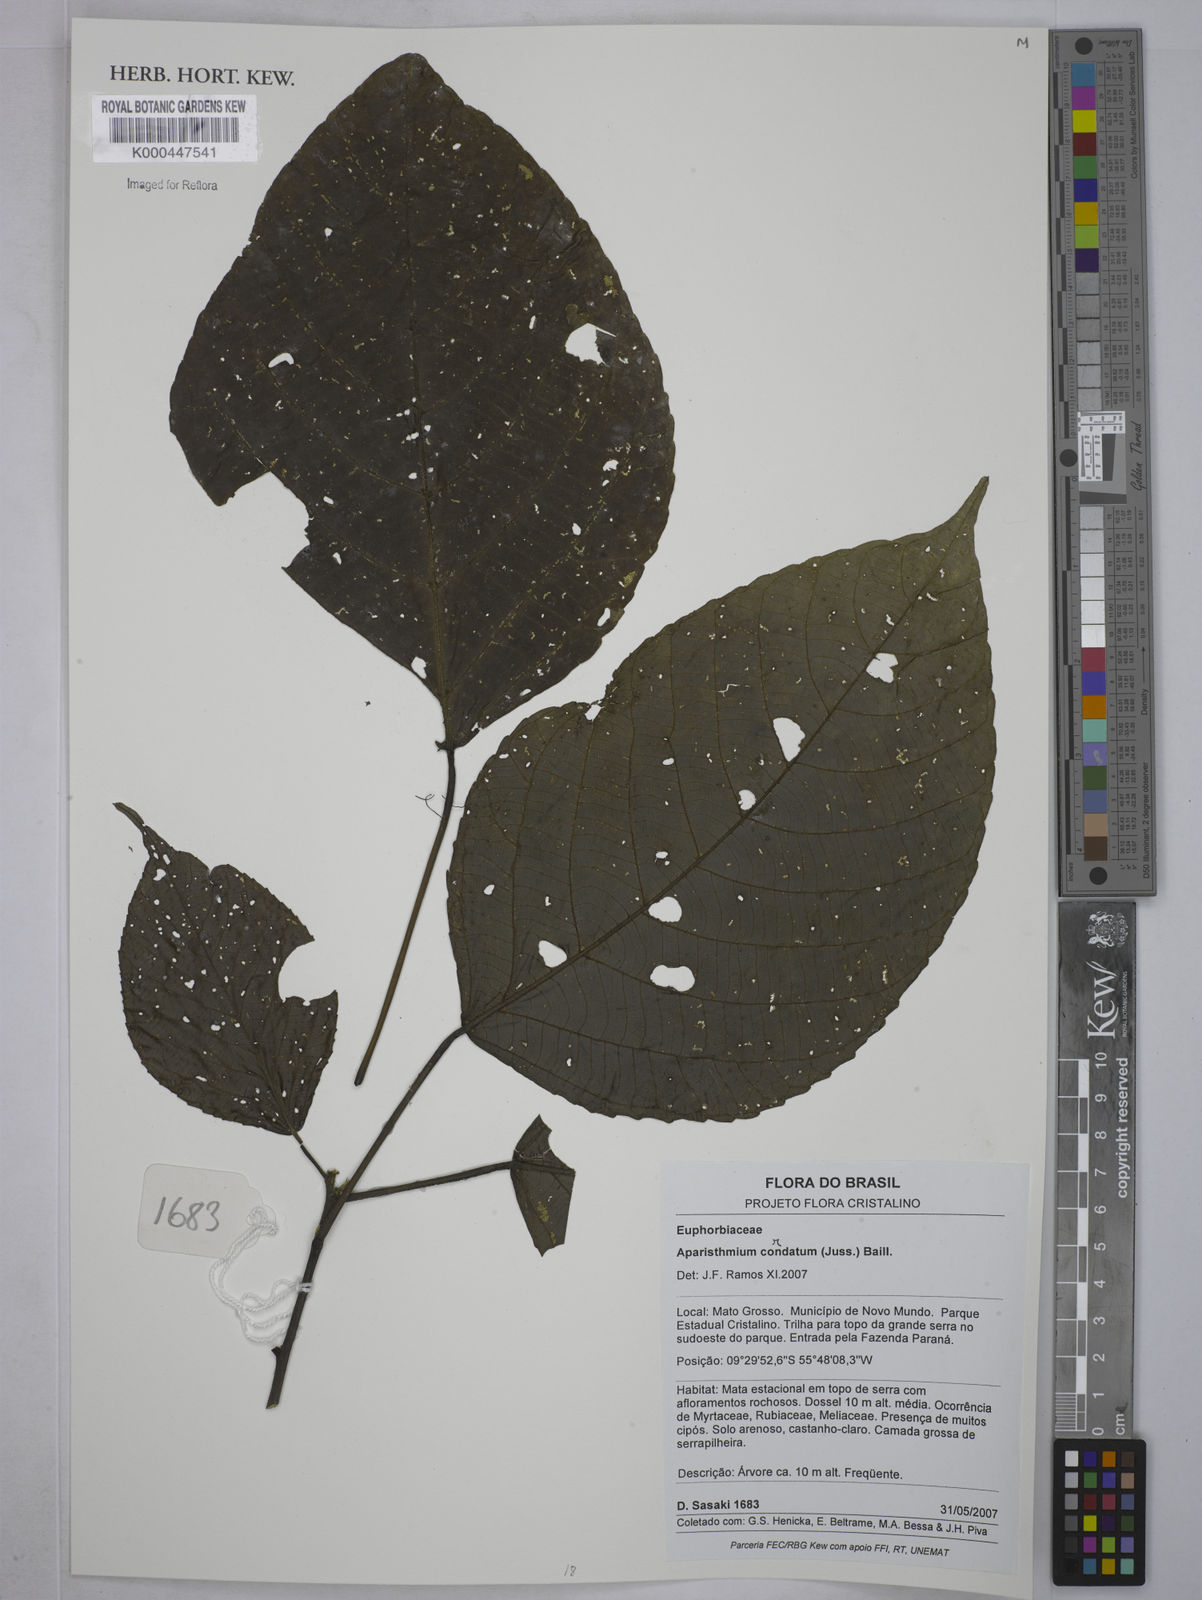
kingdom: Plantae
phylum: Tracheophyta
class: Magnoliopsida
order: Malpighiales
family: Euphorbiaceae
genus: Aparisthmium
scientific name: Aparisthmium cordatum
